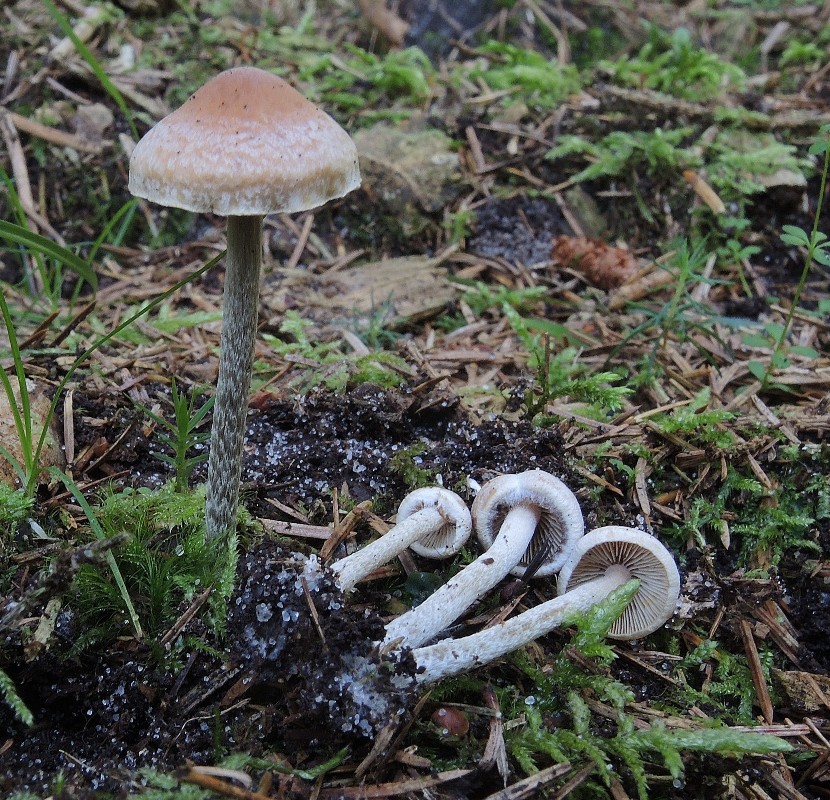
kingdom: Fungi
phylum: Basidiomycota
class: Agaricomycetes
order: Agaricales
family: Strophariaceae
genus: Hypholoma
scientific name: Hypholoma marginatum
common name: enlig svovlhat
